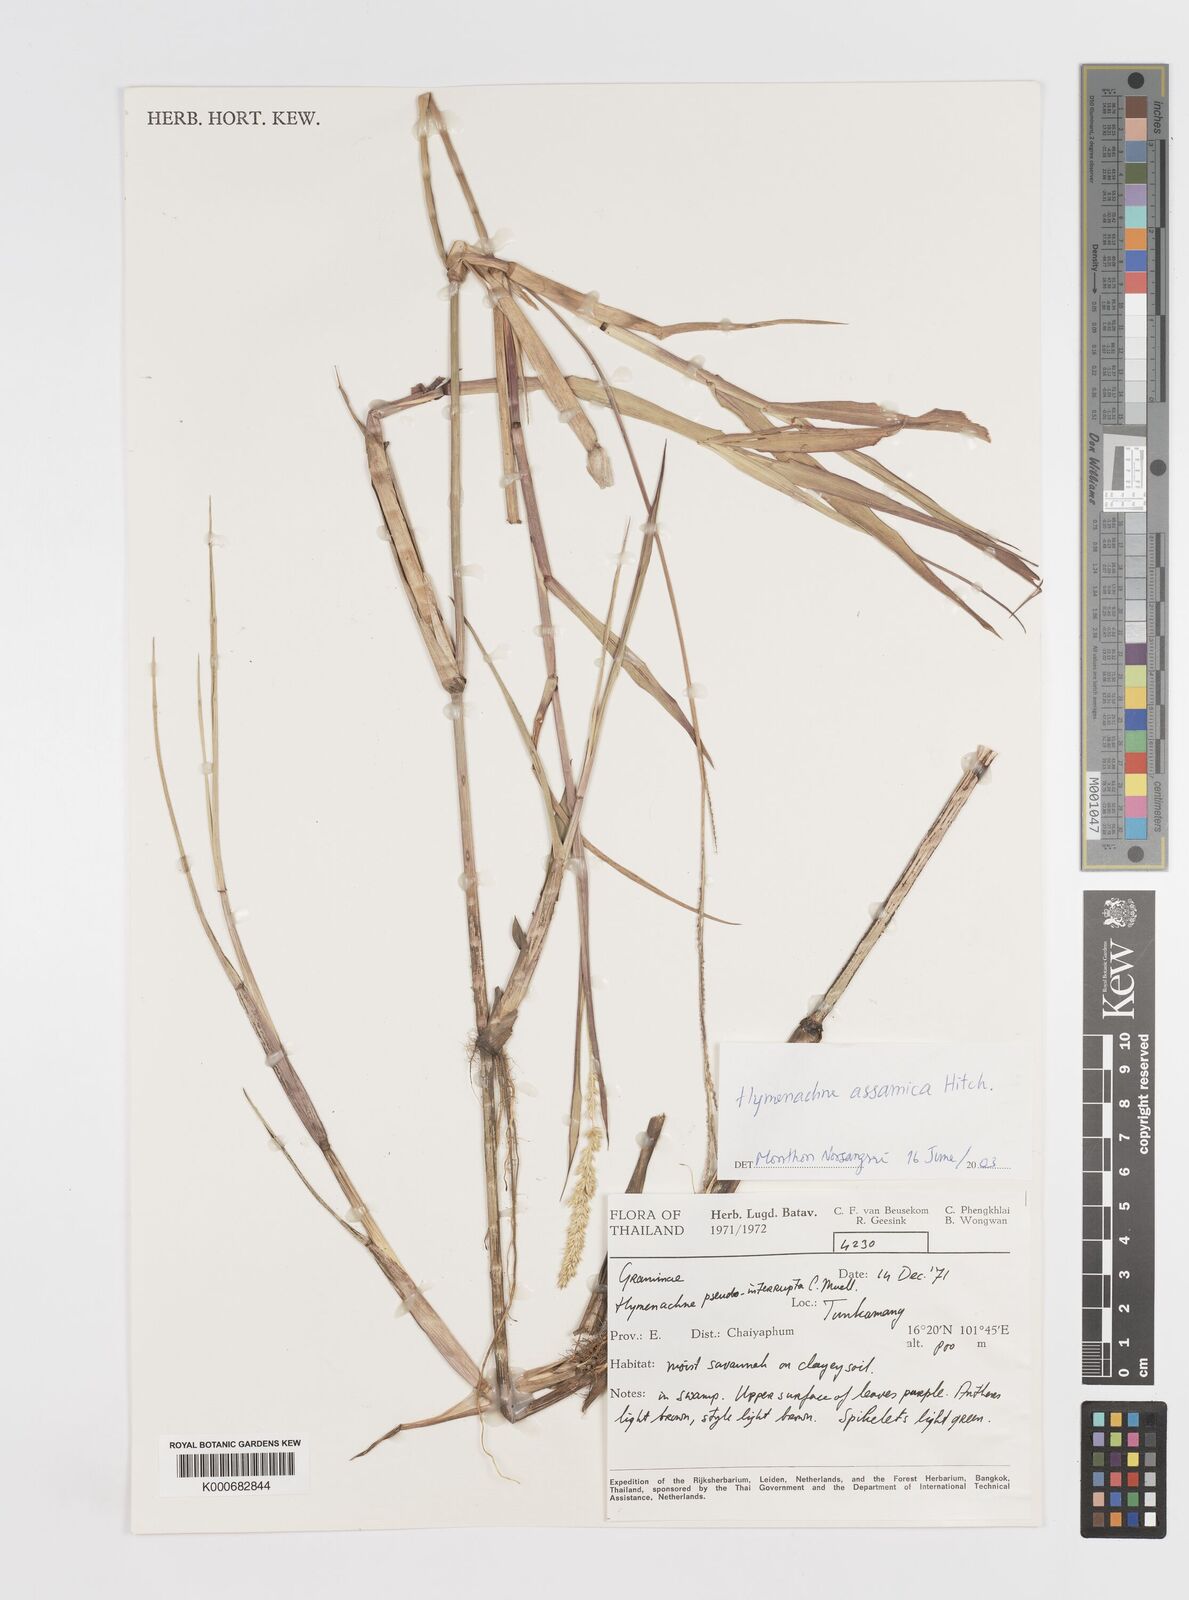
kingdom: Plantae
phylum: Tracheophyta
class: Liliopsida
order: Poales
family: Poaceae
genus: Hymenachne
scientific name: Hymenachne assamica
